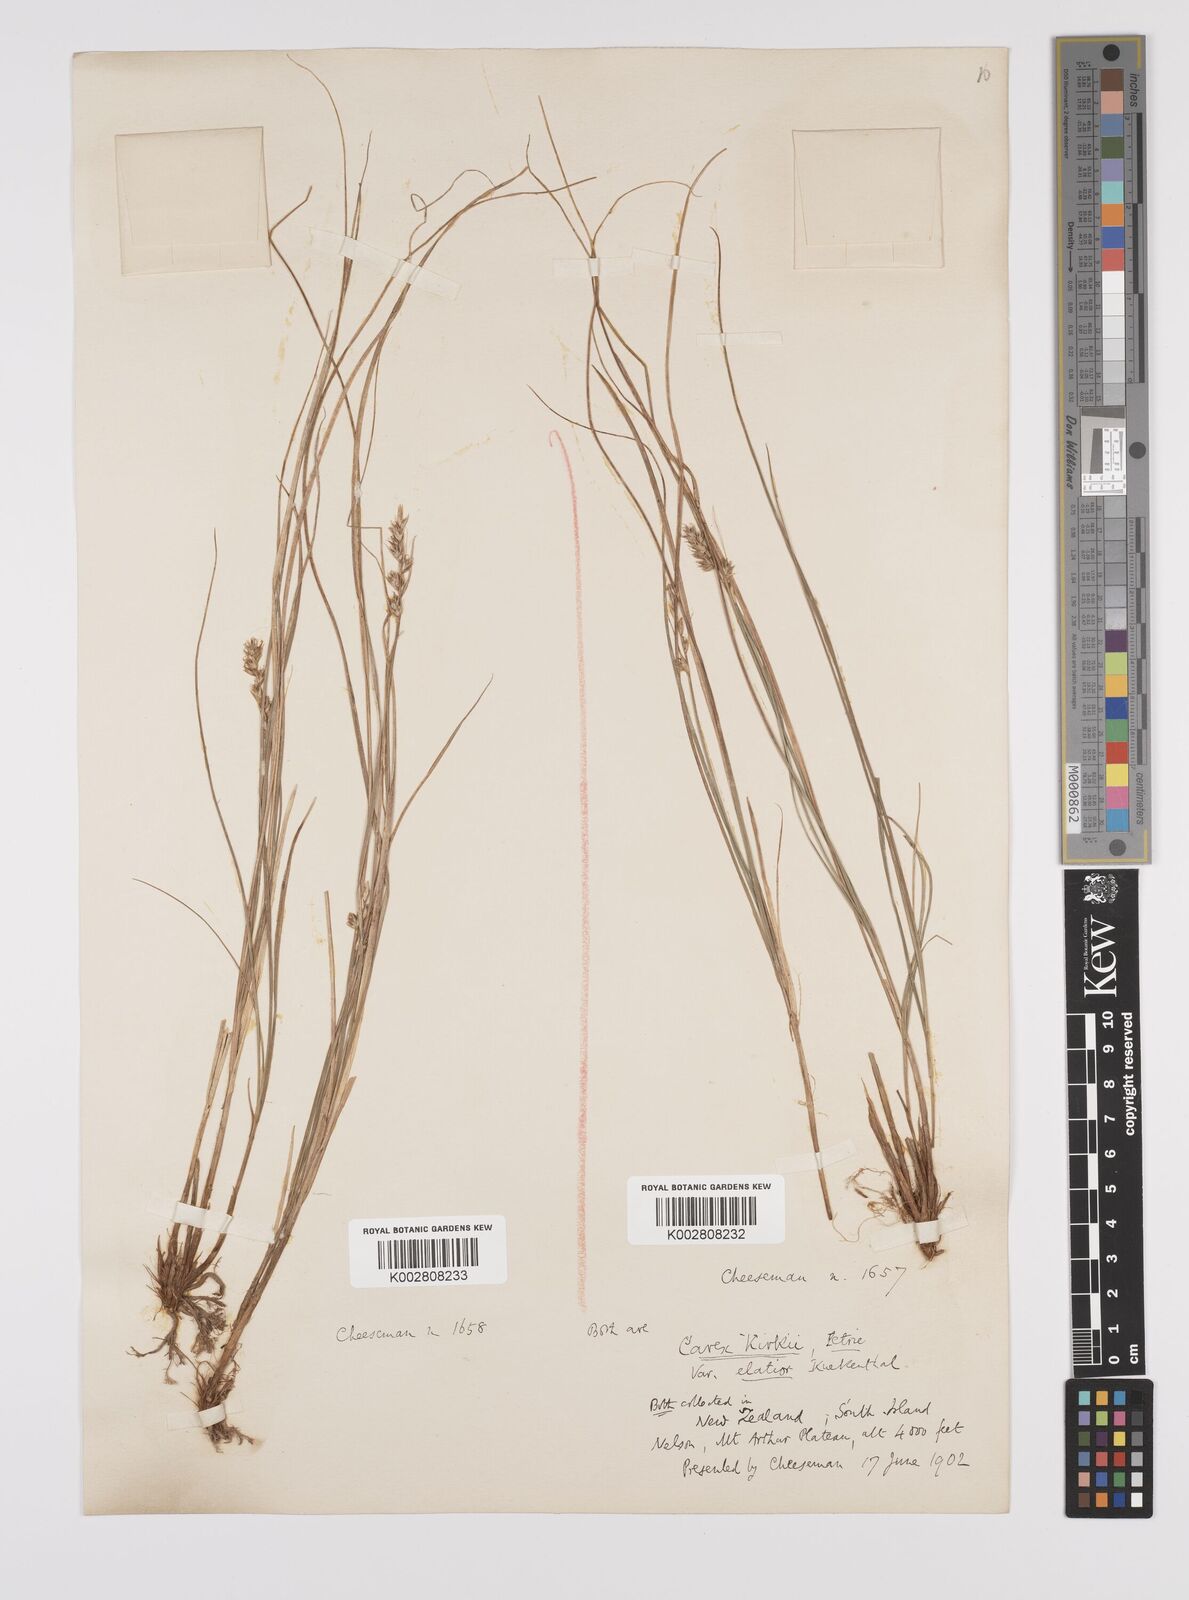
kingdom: Plantae
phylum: Tracheophyta
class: Liliopsida
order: Poales
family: Cyperaceae
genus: Carex
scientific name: Carex kirkii
